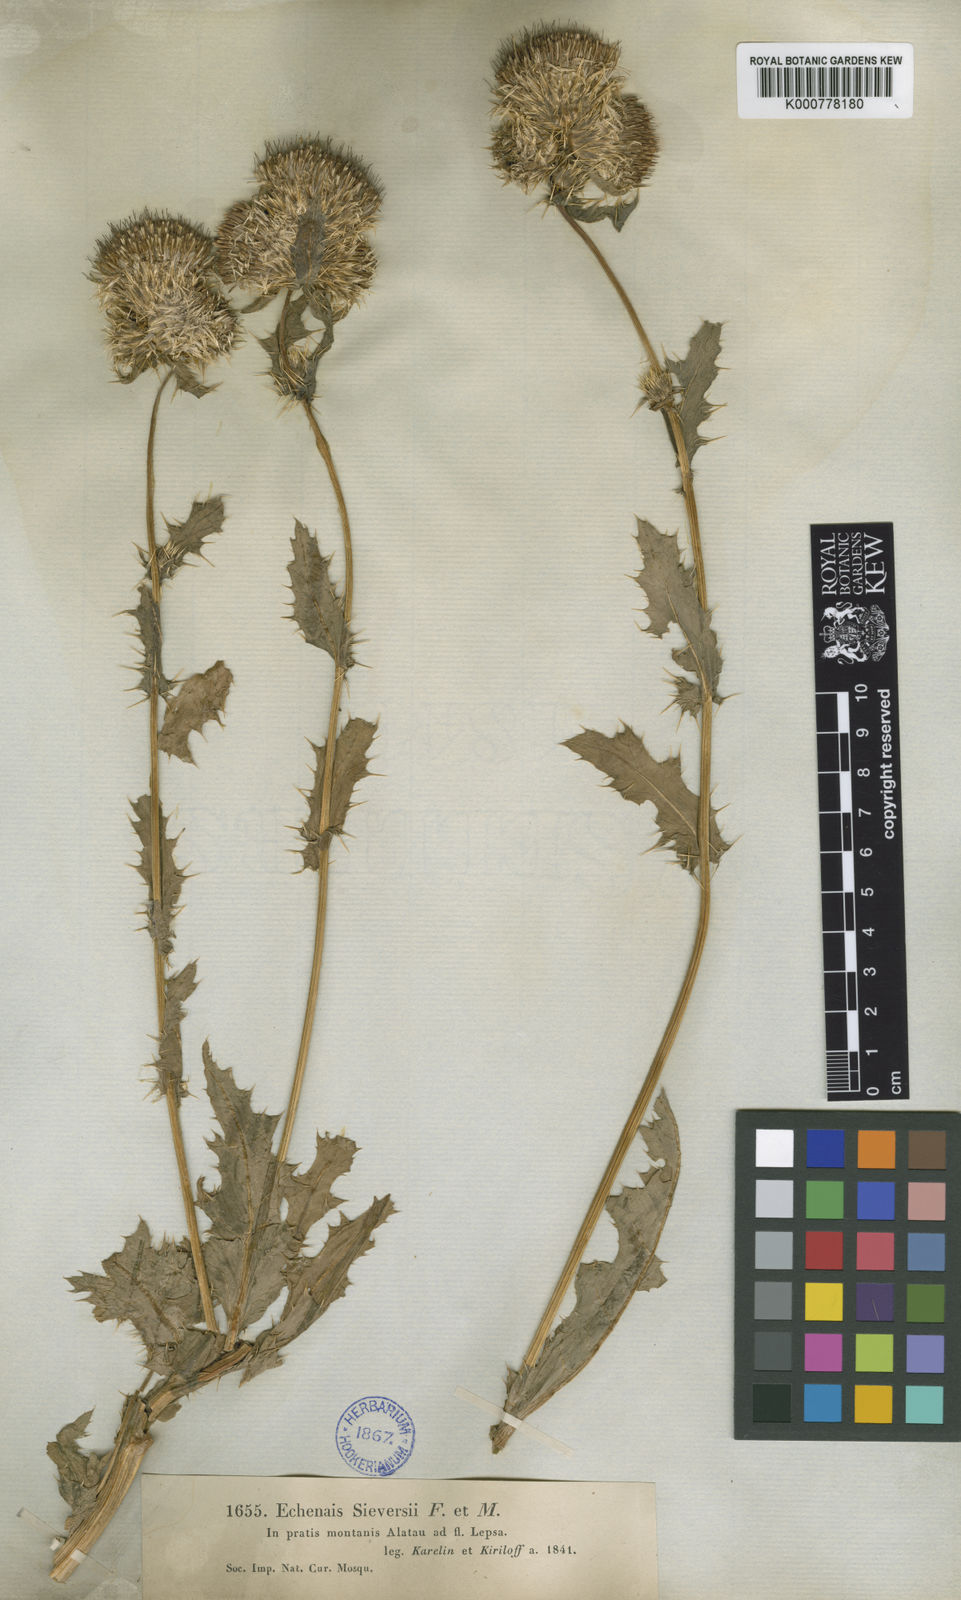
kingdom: Plantae
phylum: Tracheophyta
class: Magnoliopsida
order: Asterales
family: Asteraceae
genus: Cirsium
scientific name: Cirsium sieversii
